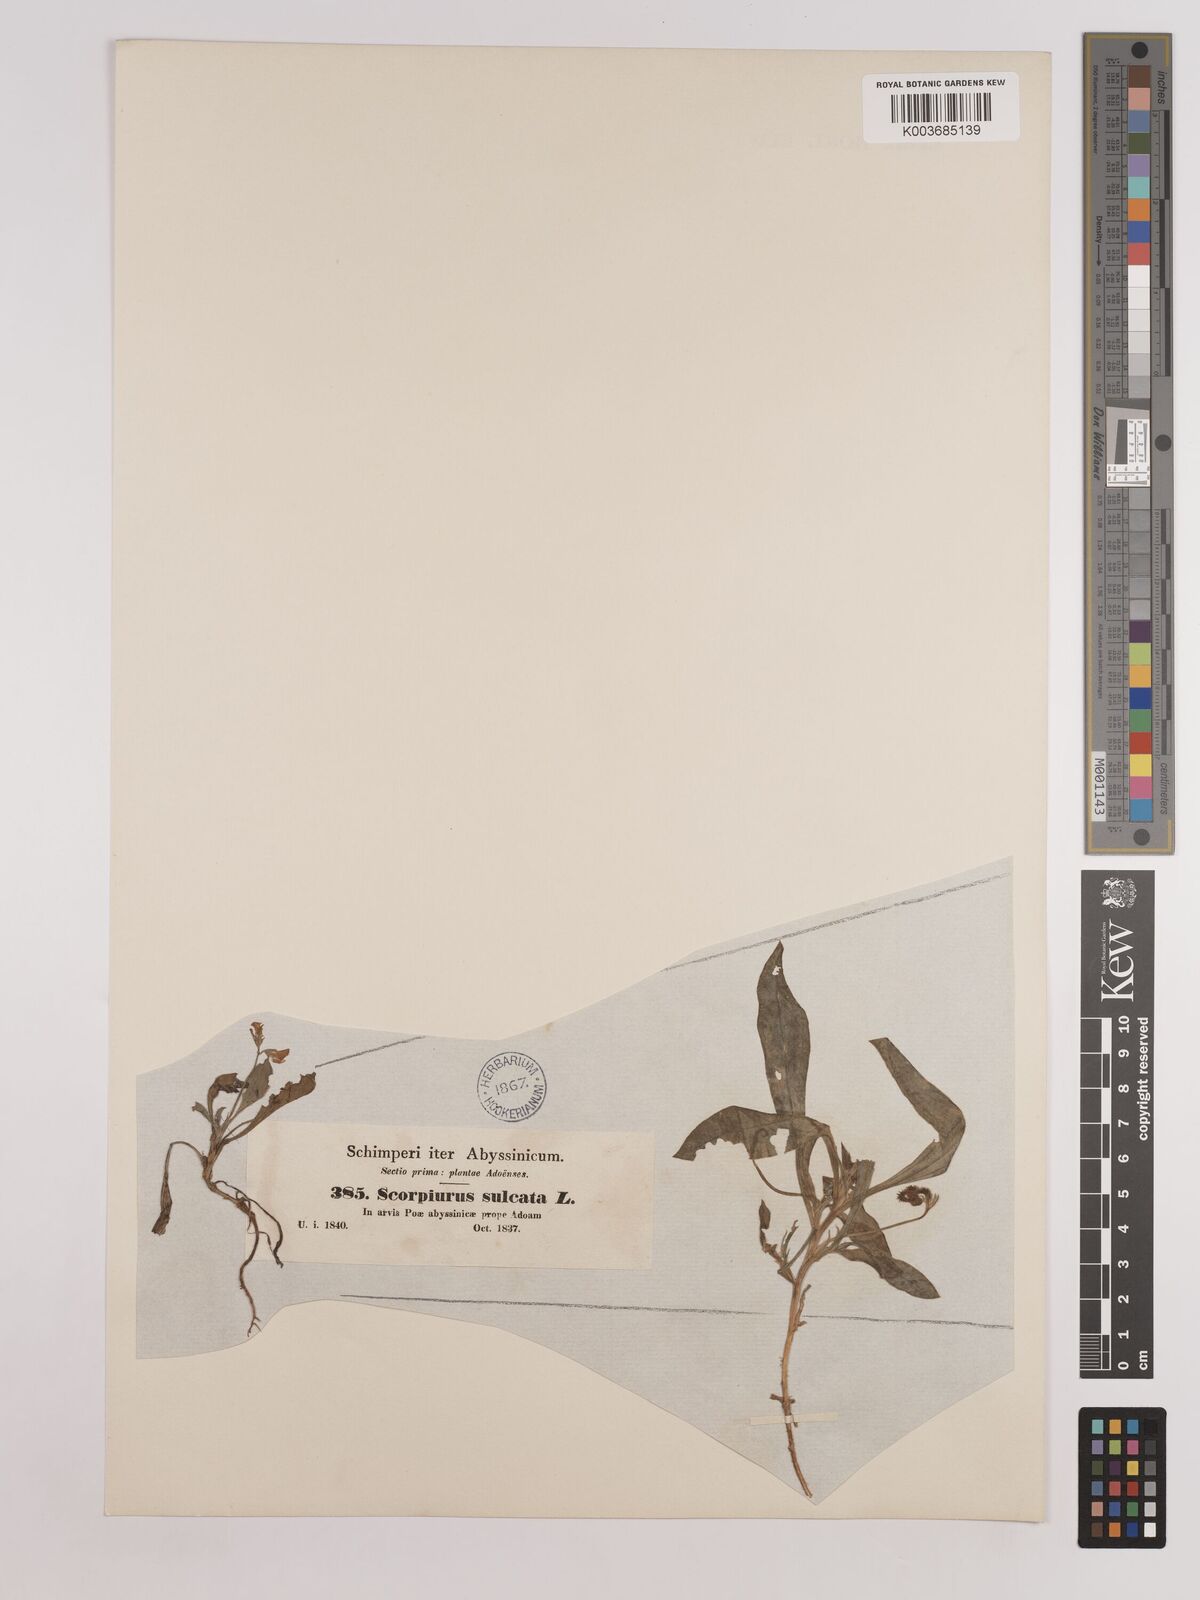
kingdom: Plantae
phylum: Tracheophyta
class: Magnoliopsida
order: Fabales
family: Fabaceae
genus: Scorpiurus
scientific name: Scorpiurus muricatus
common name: Caterpillar-plant
